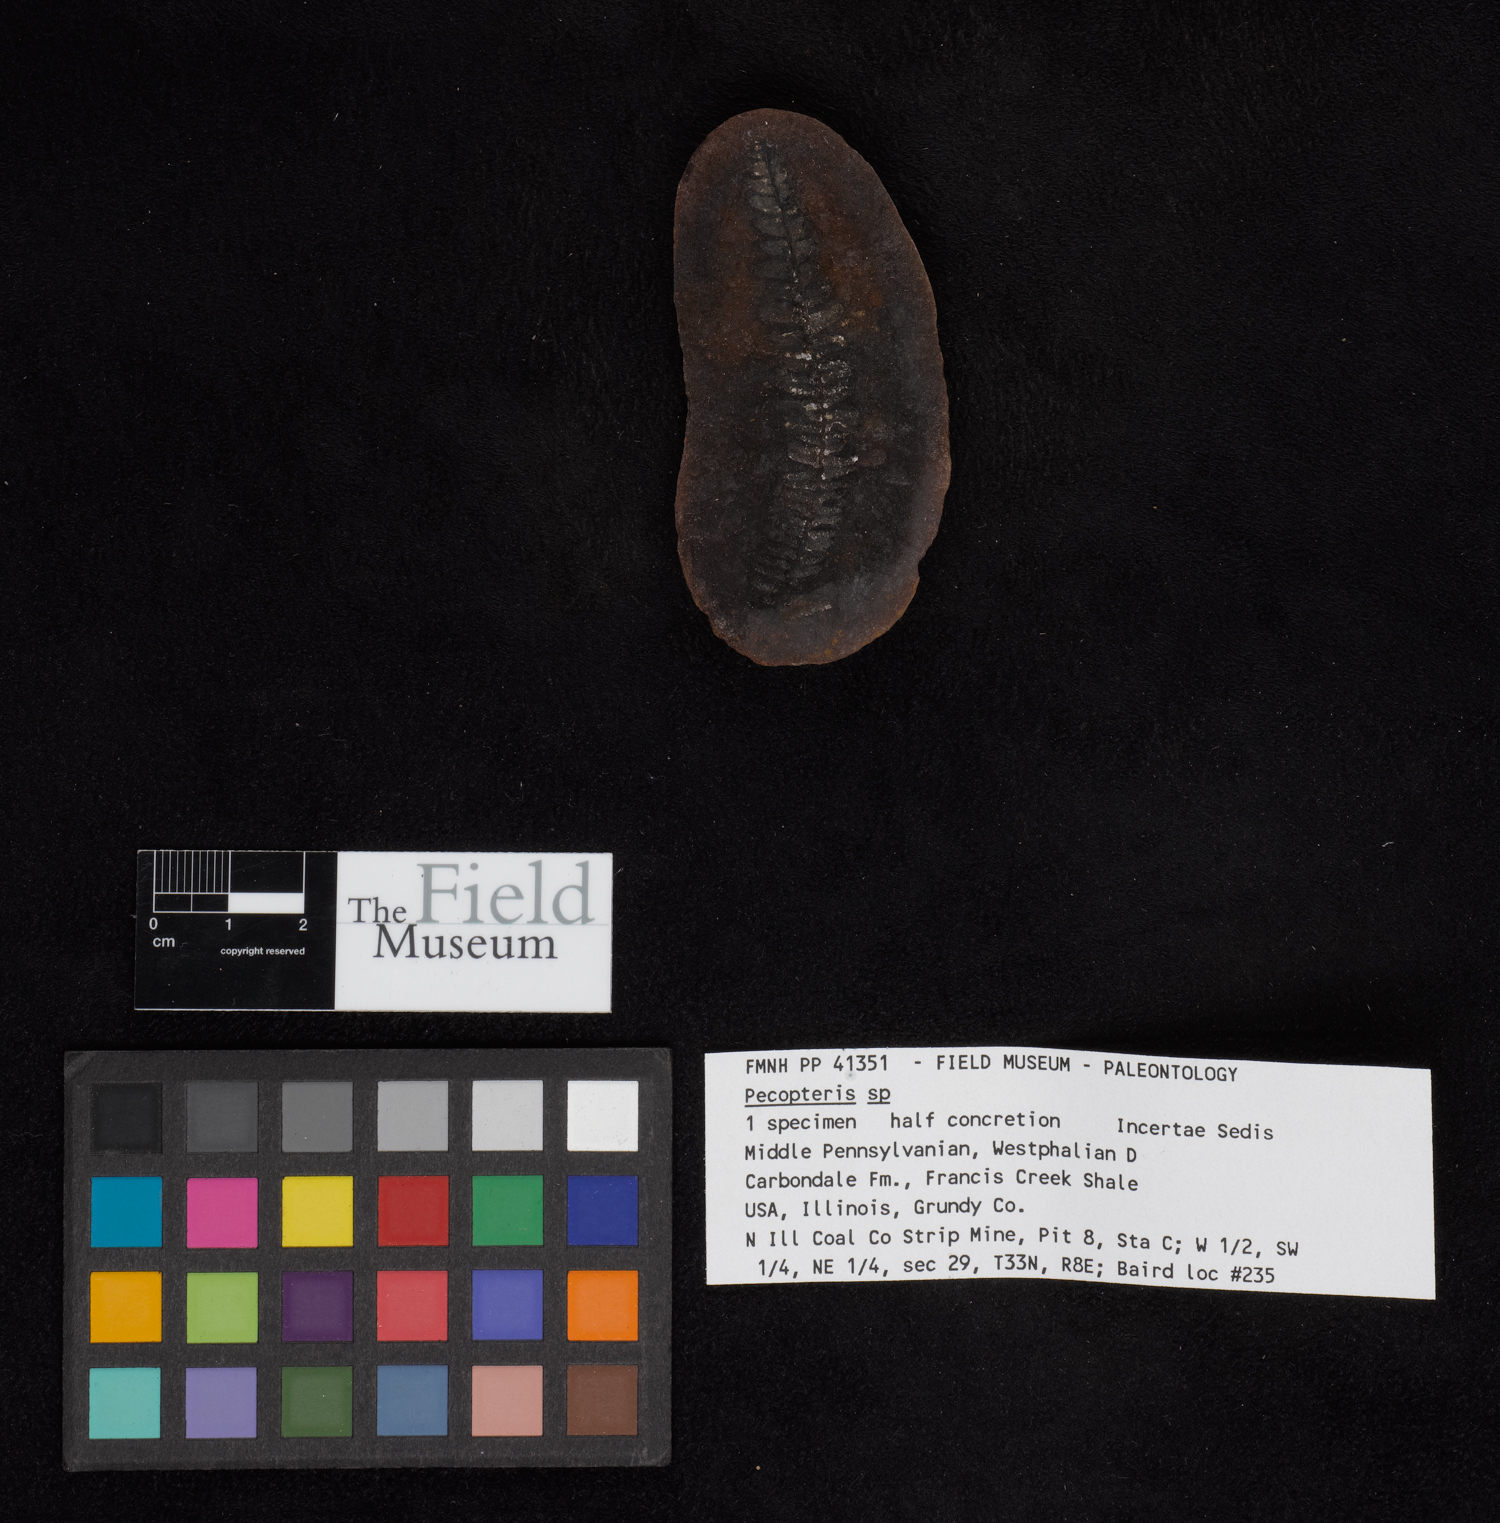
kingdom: Plantae
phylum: Tracheophyta
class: Polypodiopsida
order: Marattiales
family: Asterothecaceae
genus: Pecopteris
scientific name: Pecopteris
